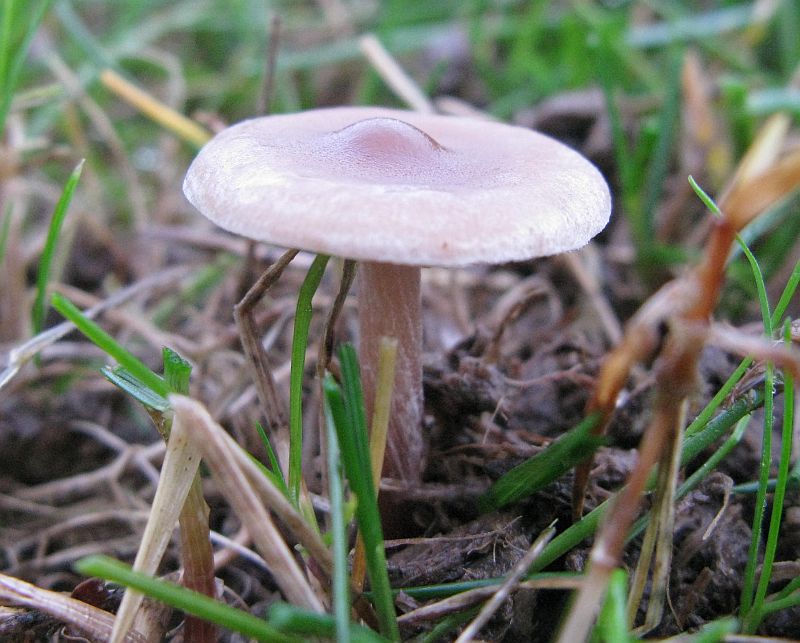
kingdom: Fungi
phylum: Basidiomycota
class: Agaricomycetes
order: Agaricales
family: Marasmiaceae
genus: Baeospora
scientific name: Baeospora myosura
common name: koglebruskhat
